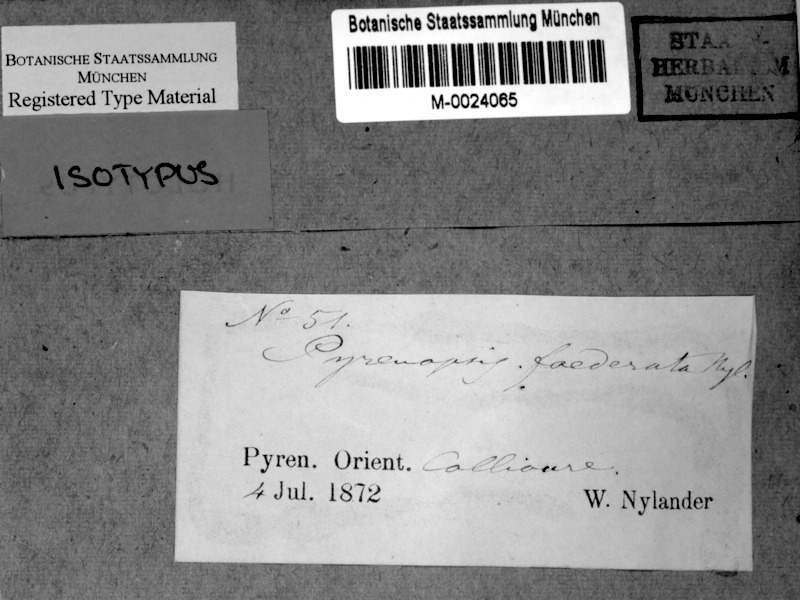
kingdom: Fungi
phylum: Ascomycota
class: Lichinomycetes
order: Lichinales
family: Lichinaceae
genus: Pyrenopsis
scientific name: Pyrenopsis foederata
